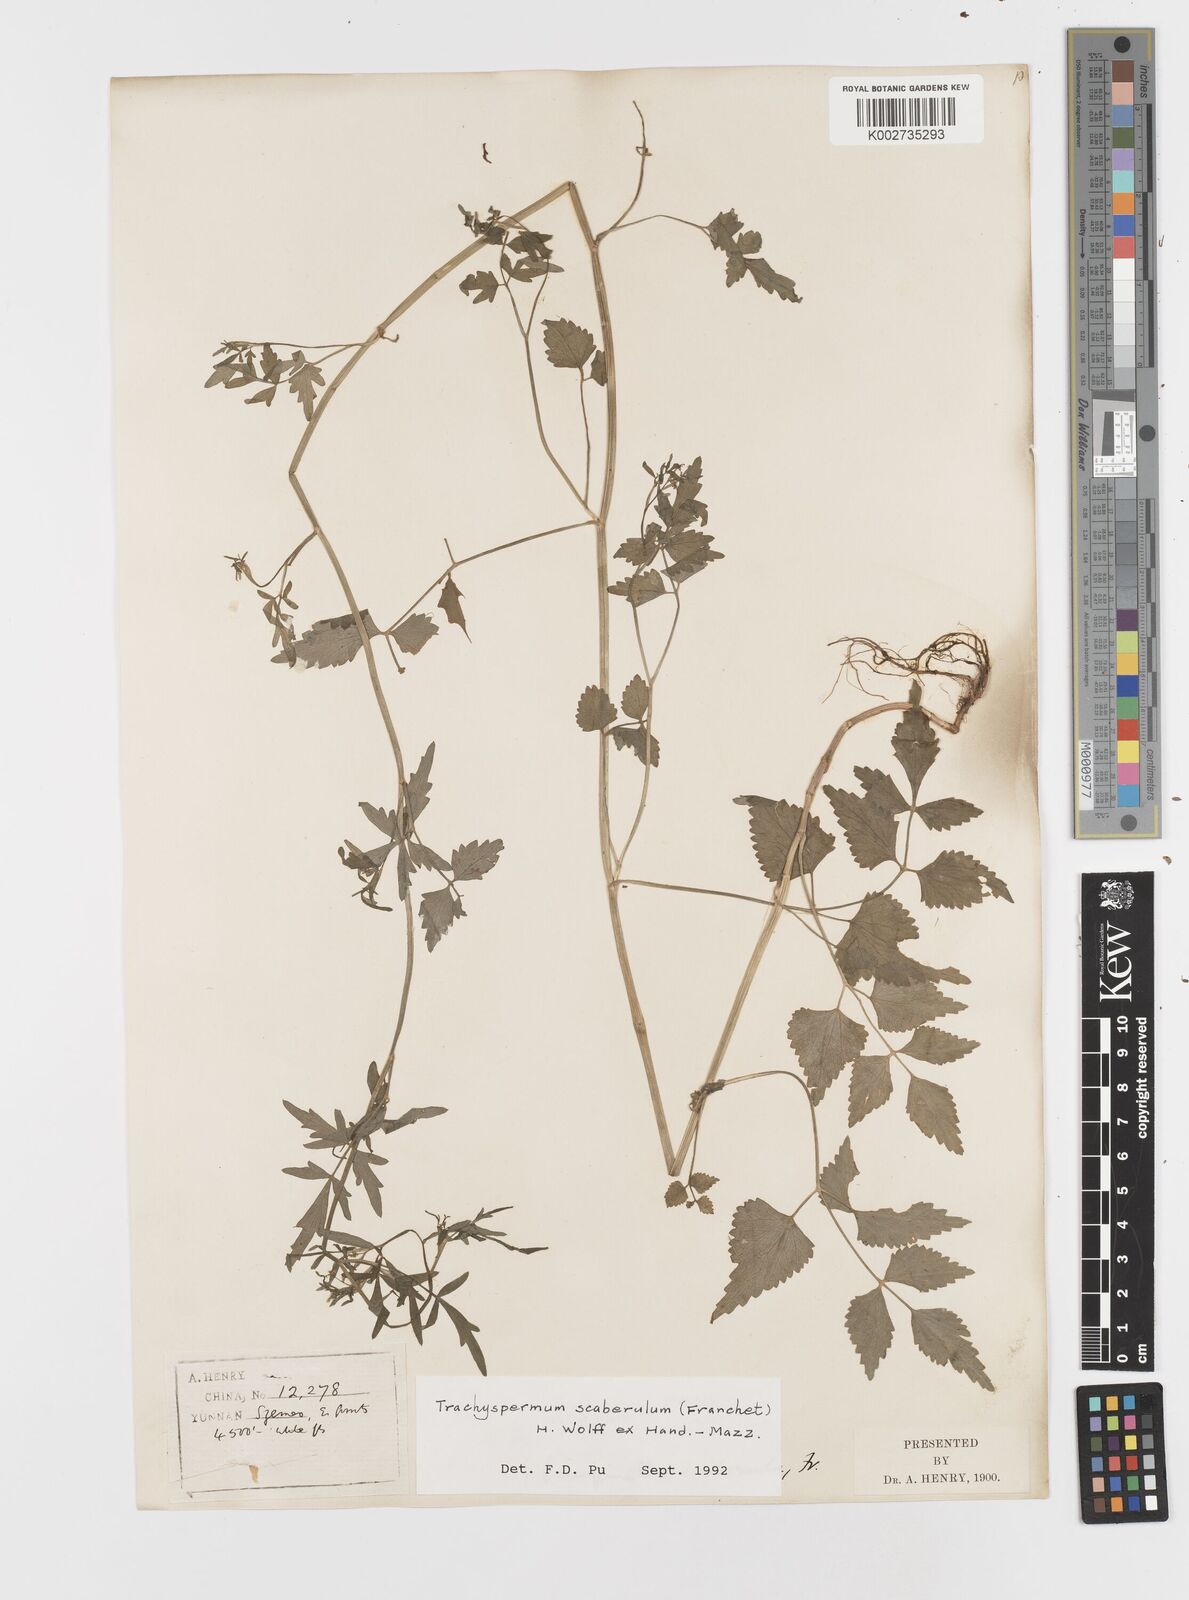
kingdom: Plantae
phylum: Tracheophyta
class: Magnoliopsida
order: Apiales
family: Apiaceae
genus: Pimpinella
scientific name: Pimpinella scaberula
